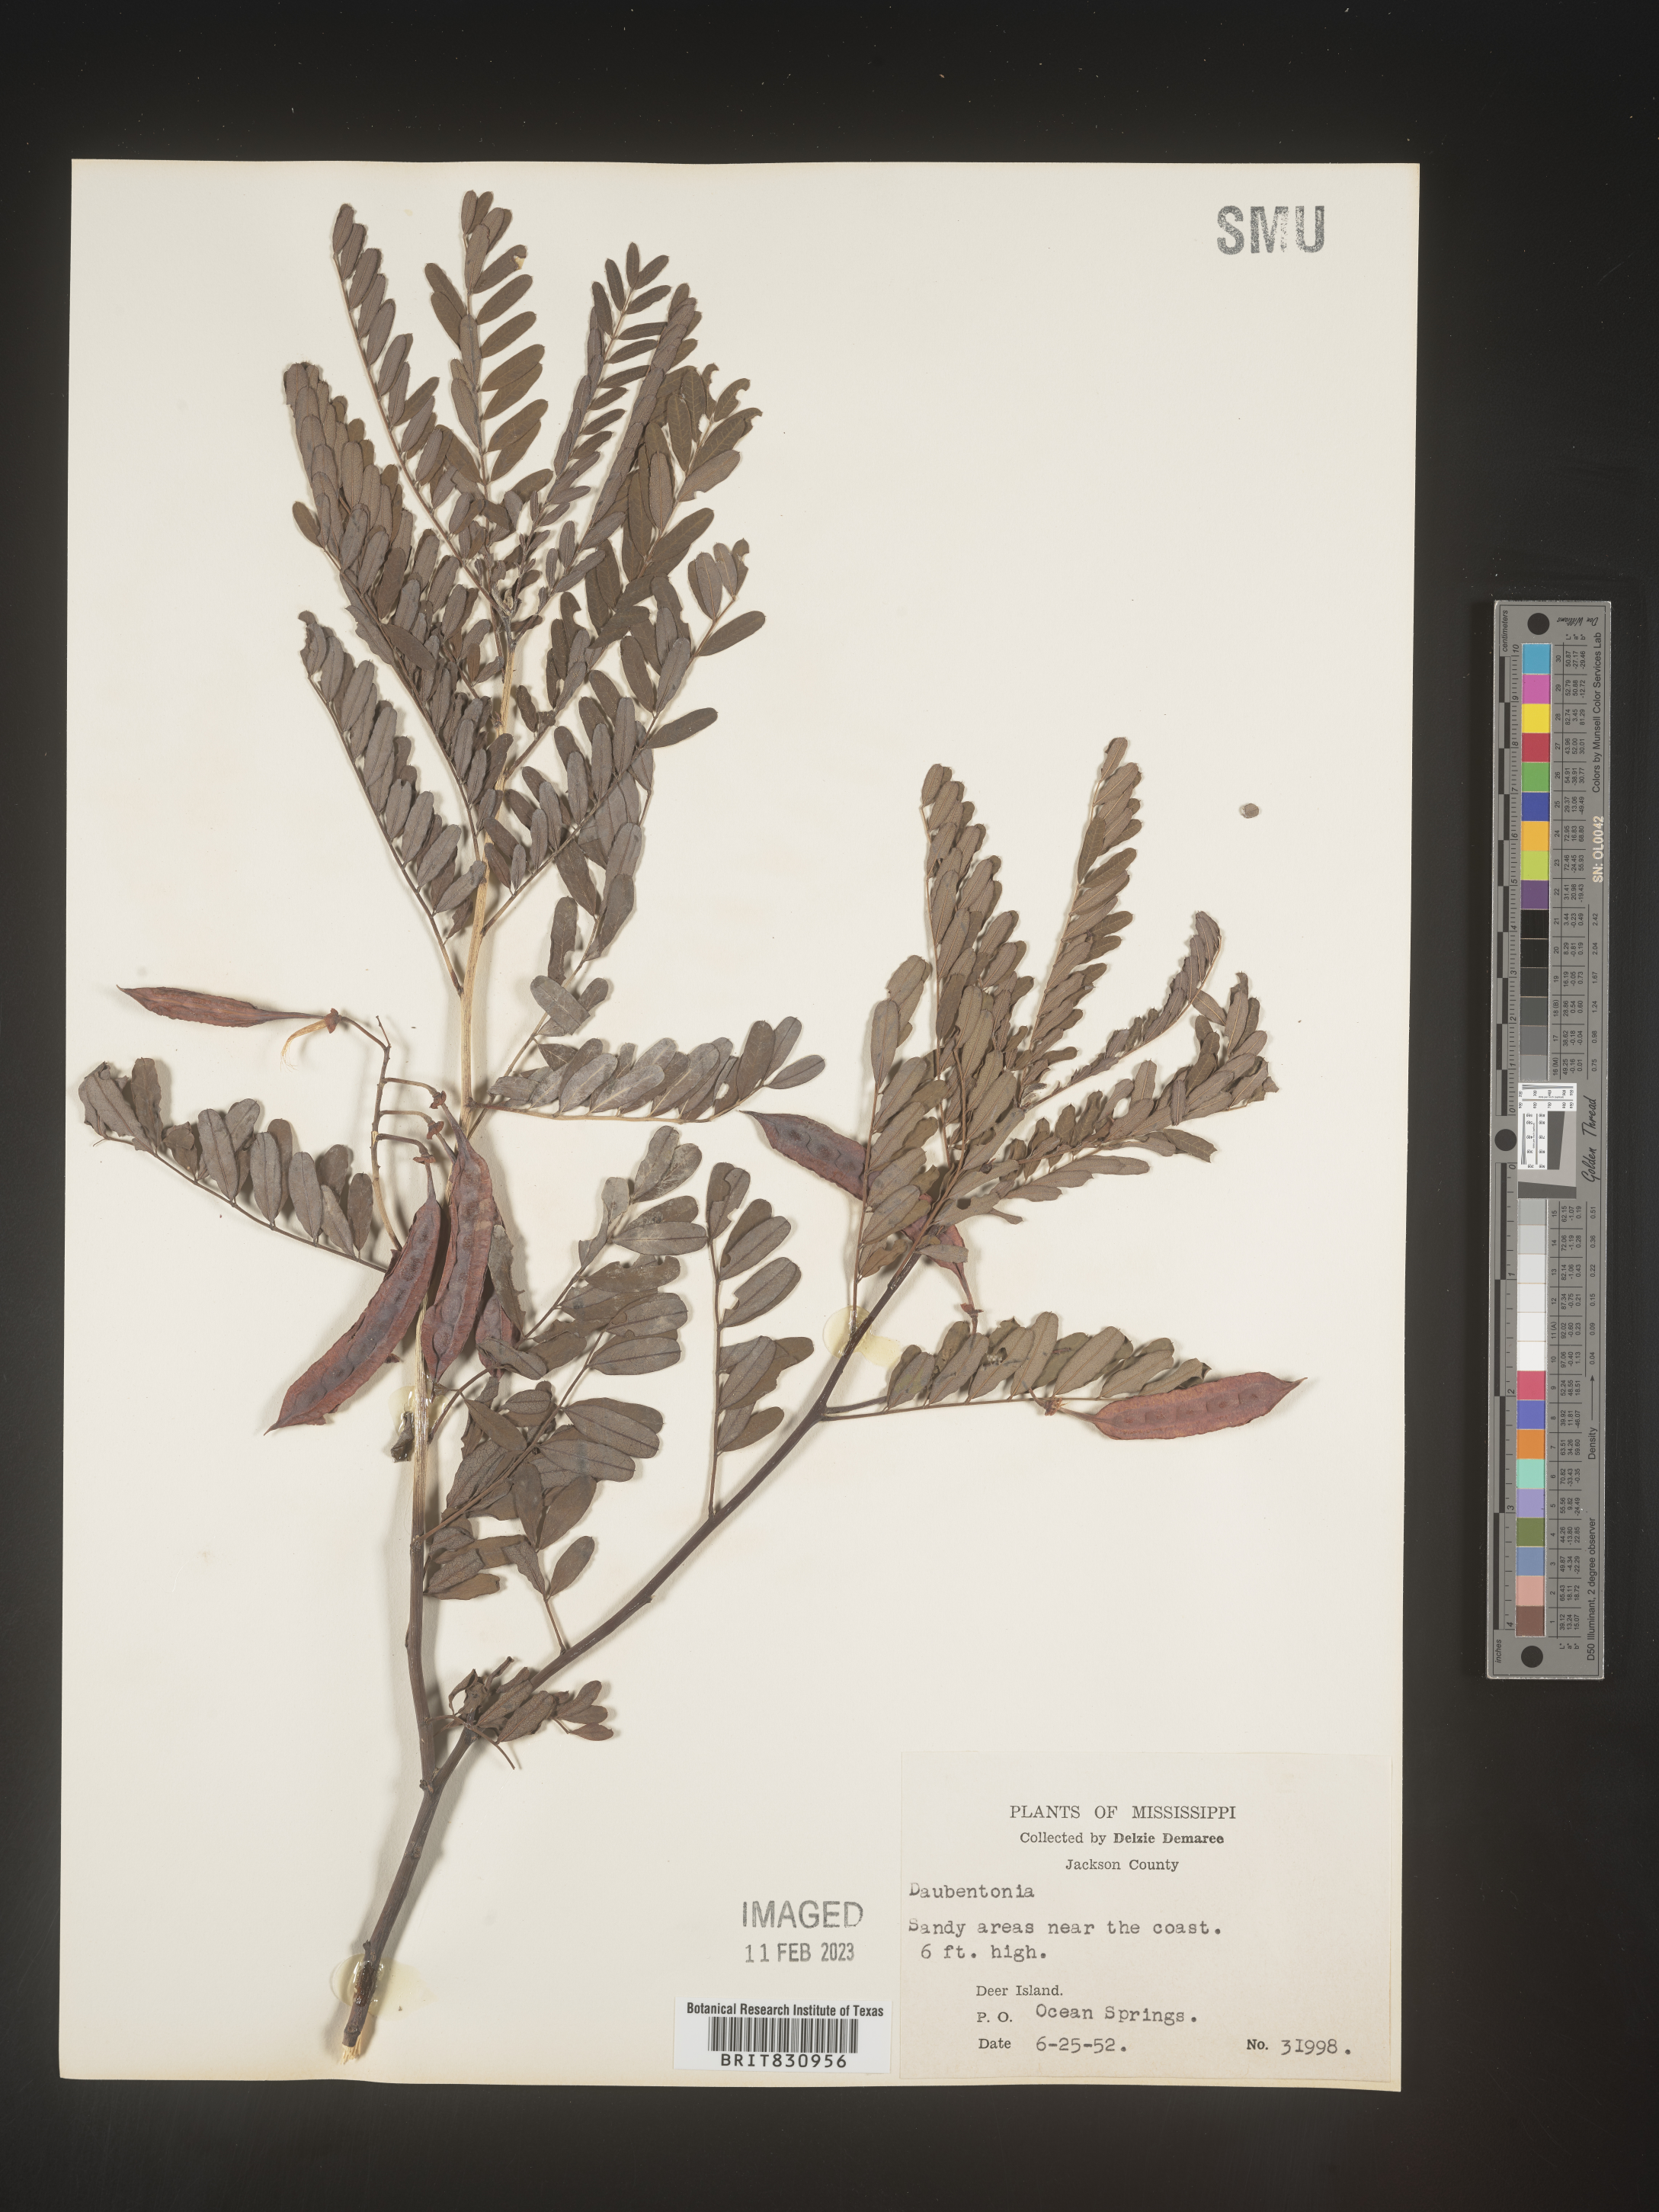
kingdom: Plantae
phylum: Tracheophyta
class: Magnoliopsida
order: Fabales
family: Fabaceae
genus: Sesbania
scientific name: Sesbania
